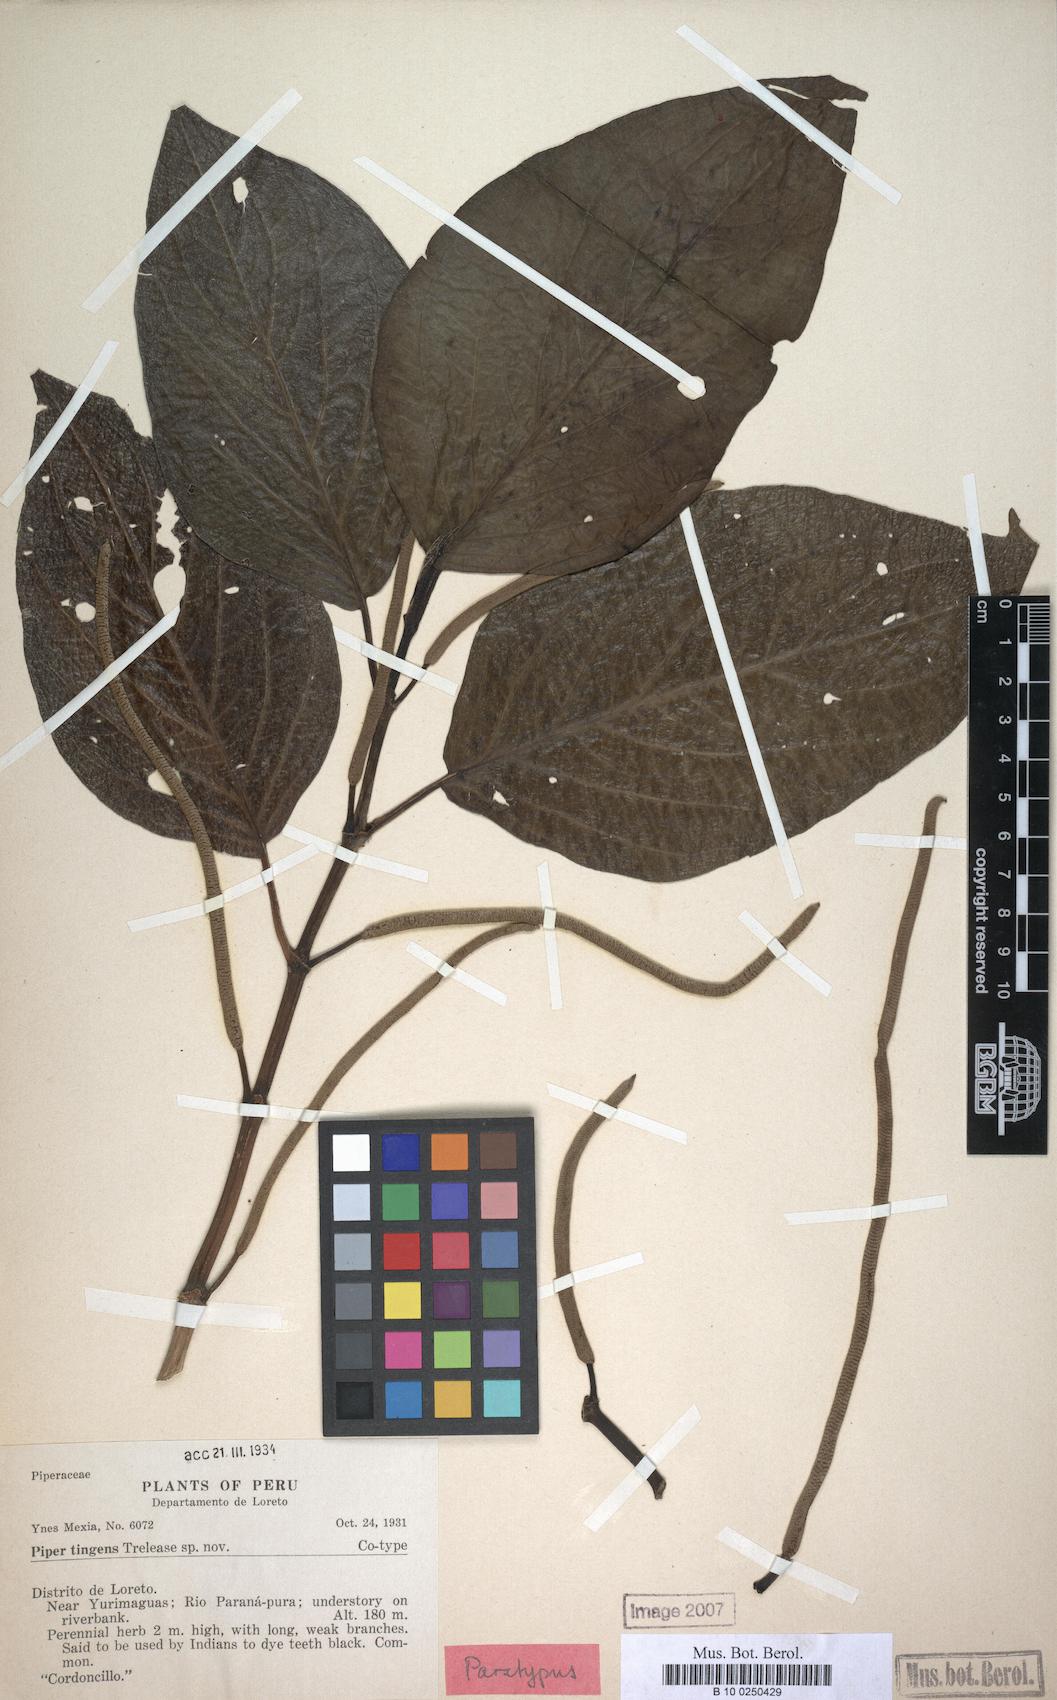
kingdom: Plantae
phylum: Tracheophyta
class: Magnoliopsida
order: Piperales
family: Piperaceae
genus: Piper
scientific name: Piper coruscans
